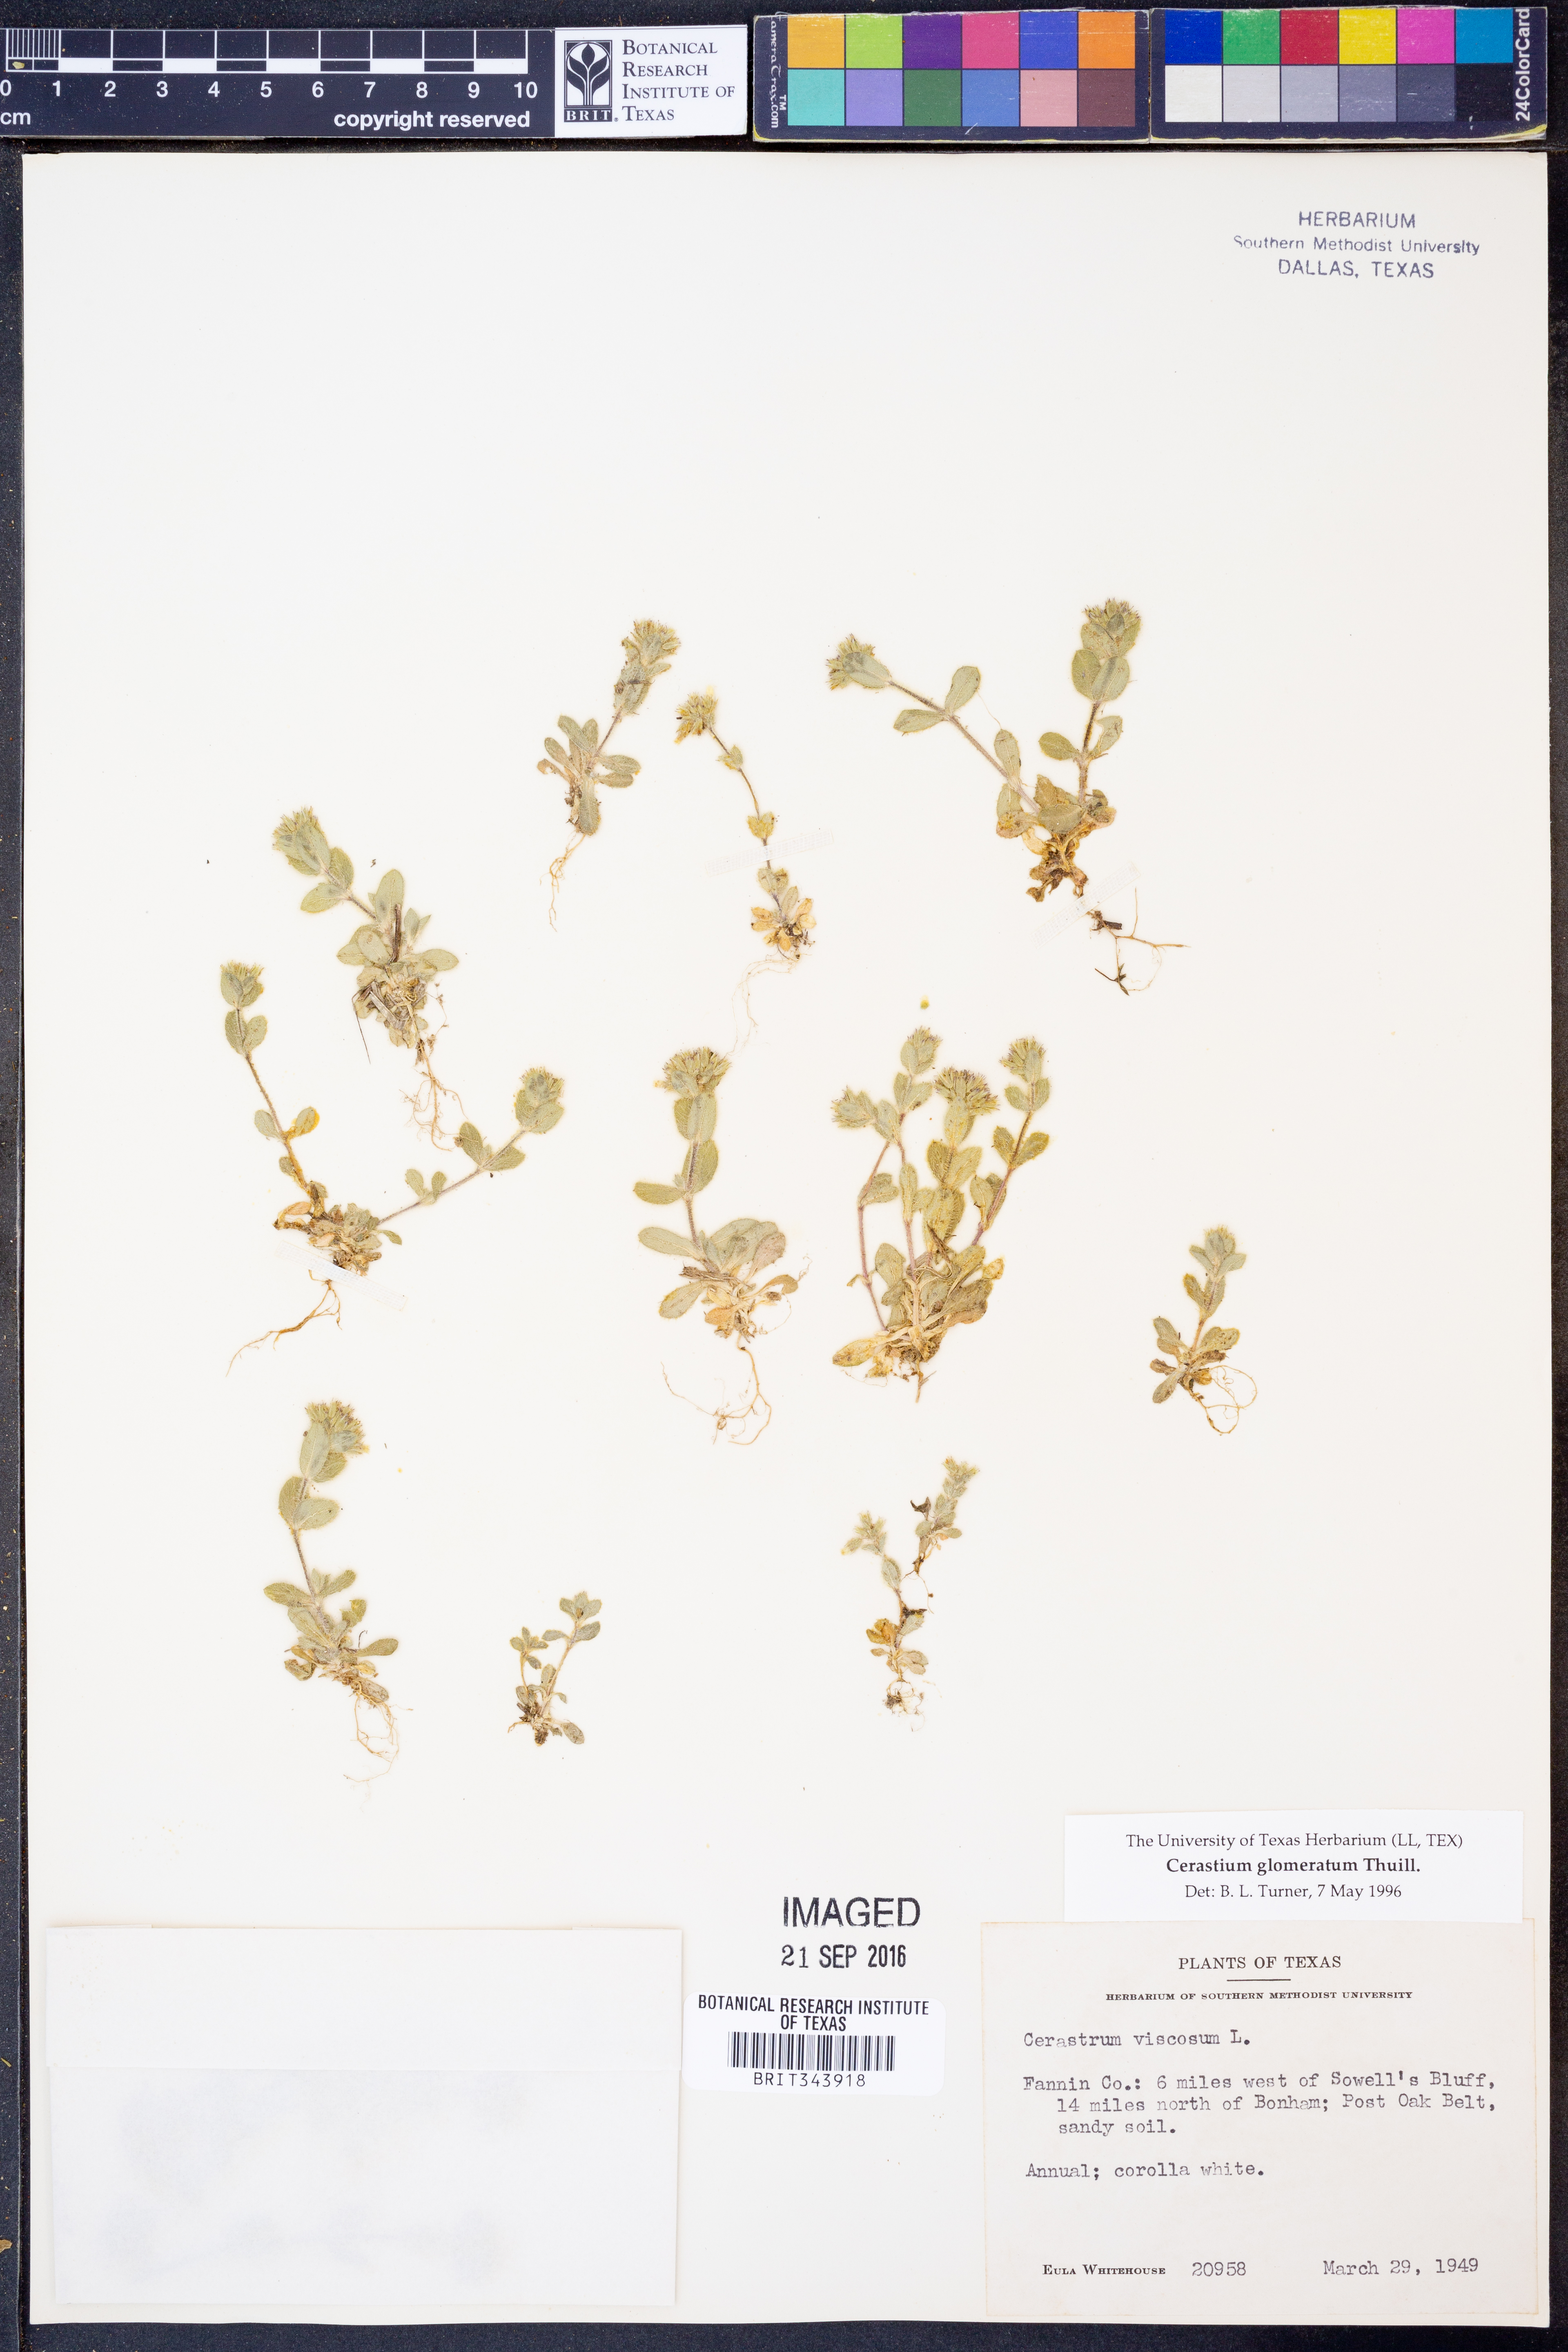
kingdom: Plantae
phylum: Tracheophyta
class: Magnoliopsida
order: Caryophyllales
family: Caryophyllaceae
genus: Cerastium
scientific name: Cerastium glomeratum
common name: Sticky chickweed
